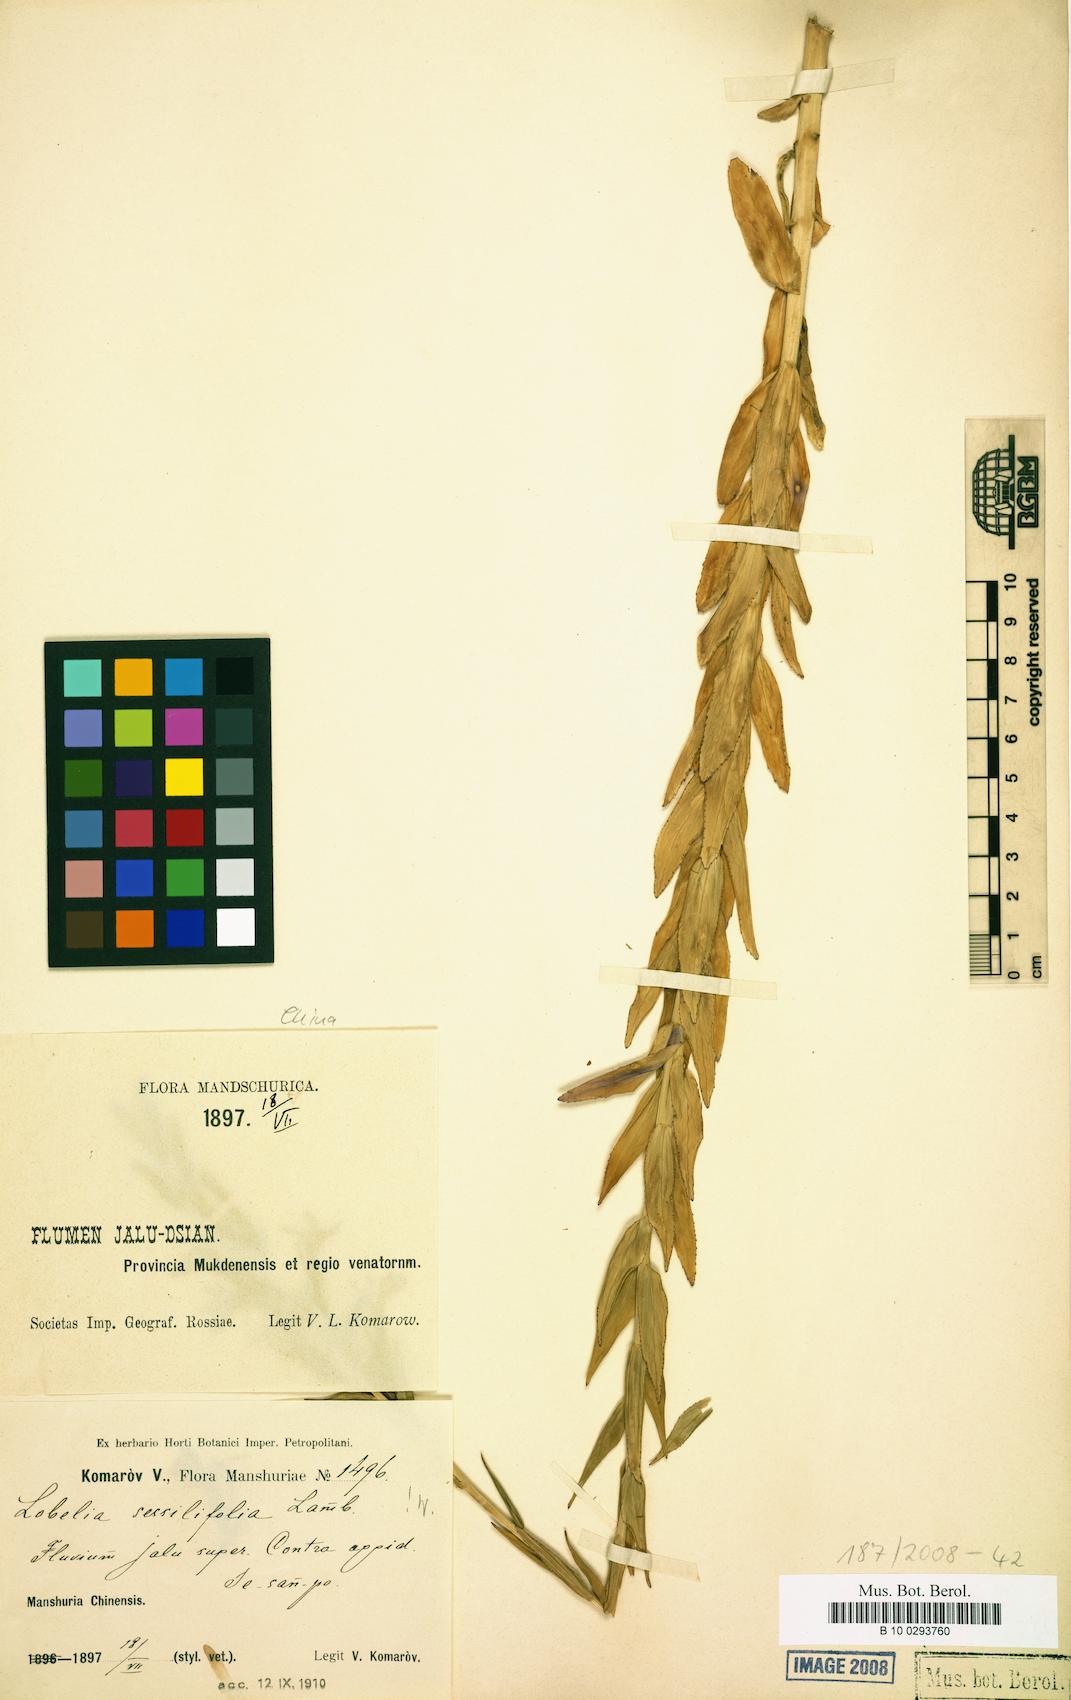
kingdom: Plantae
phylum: Tracheophyta
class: Magnoliopsida
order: Asterales
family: Campanulaceae
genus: Lobelia
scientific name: Lobelia sessilifolia
